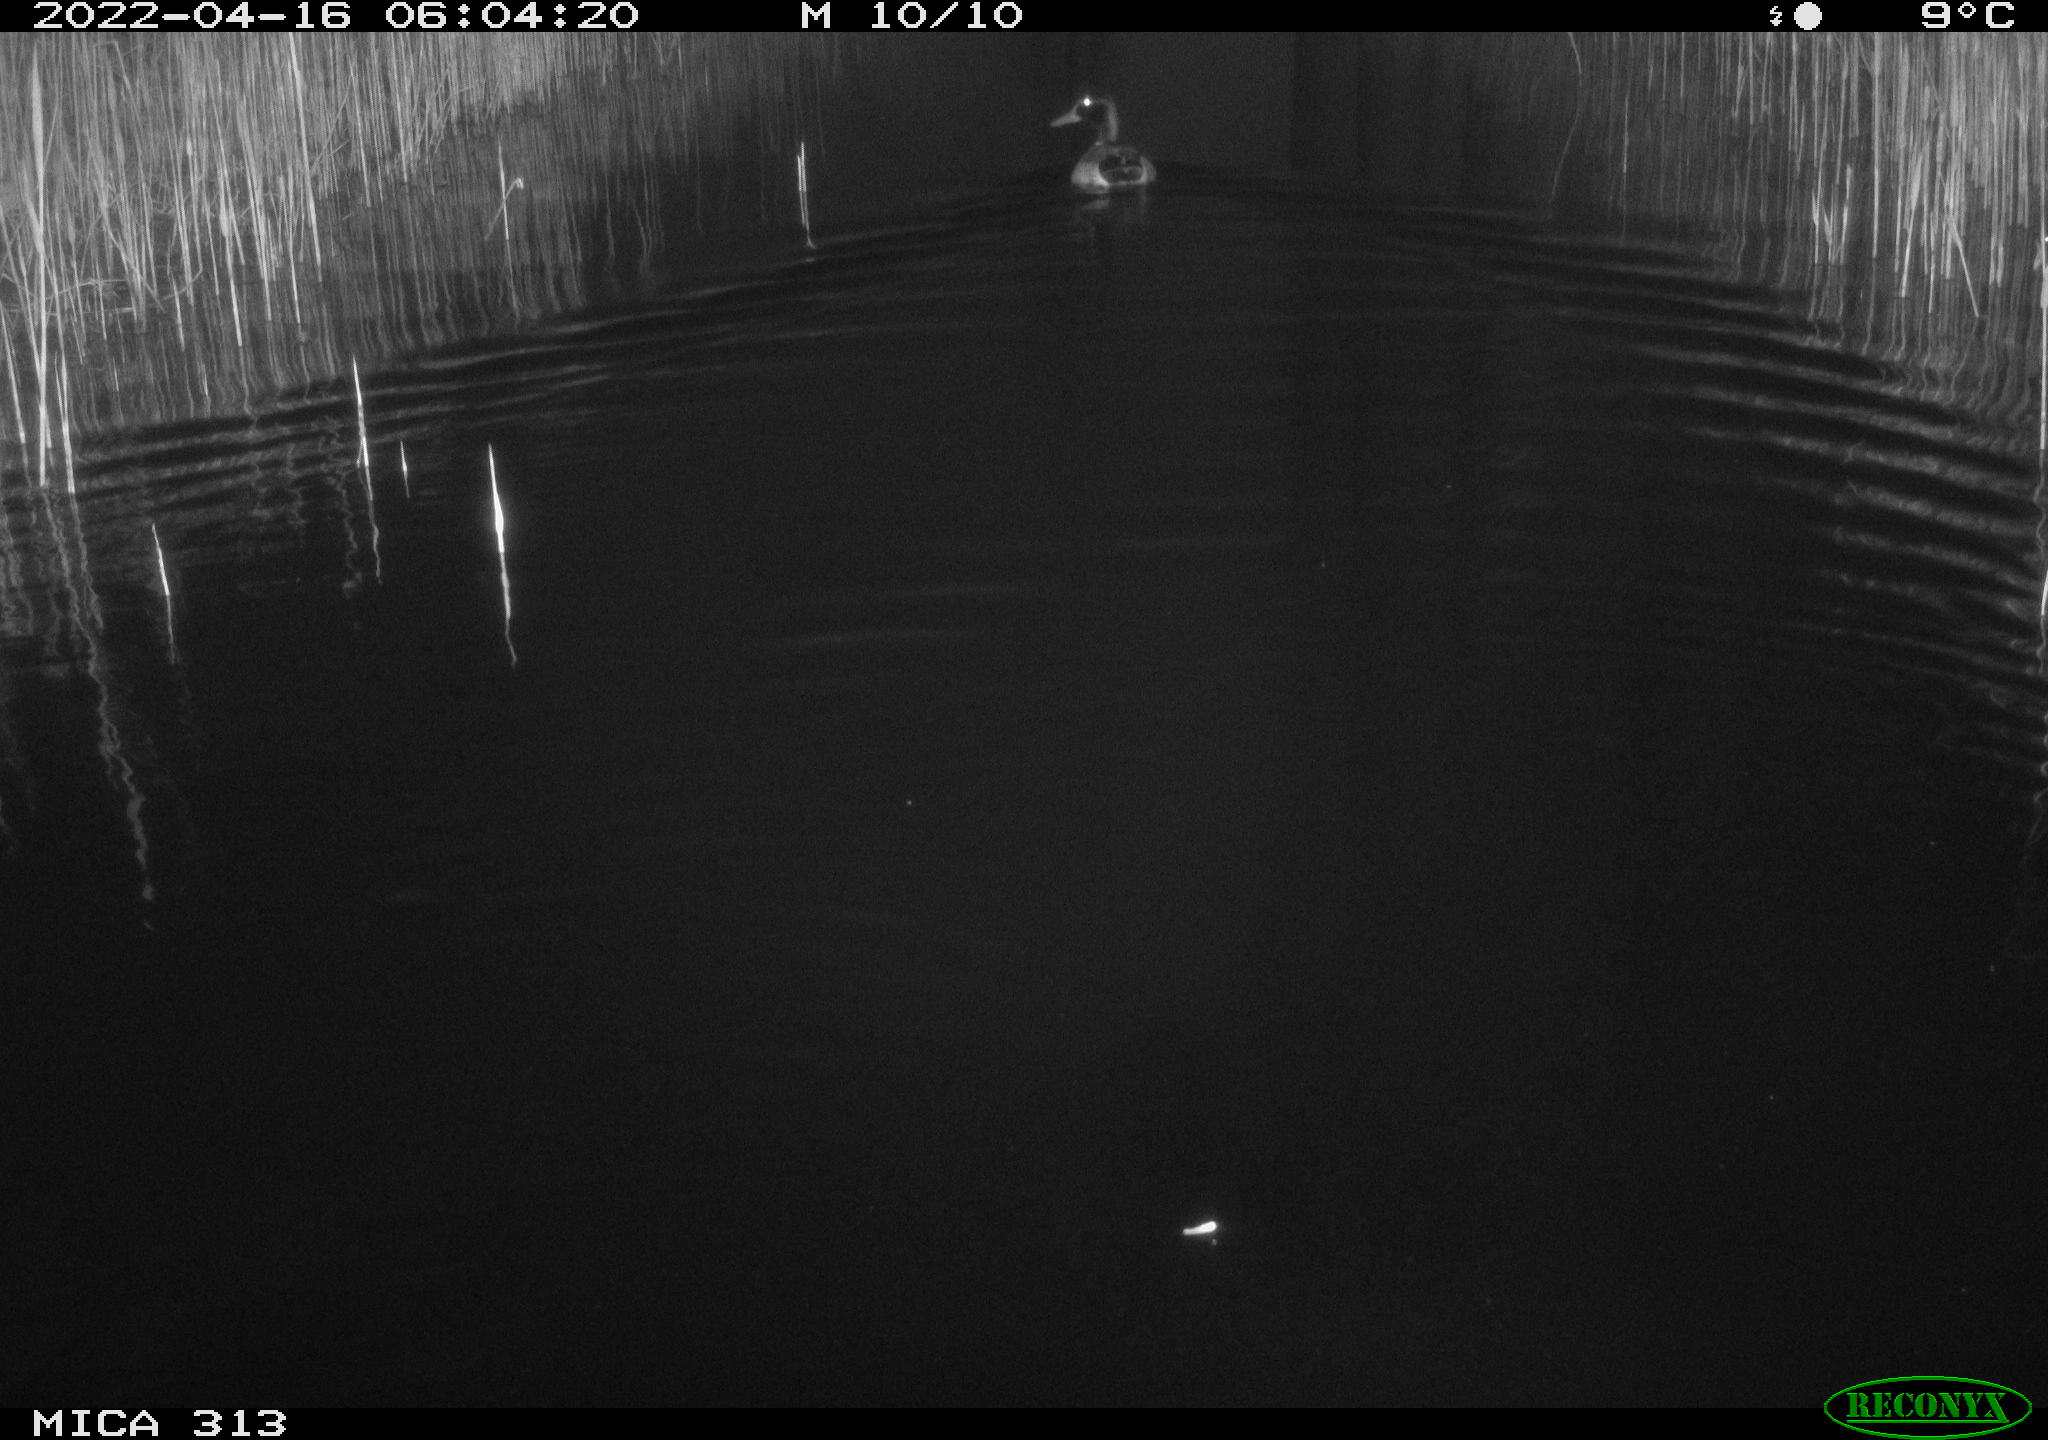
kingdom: Animalia
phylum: Chordata
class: Aves
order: Anseriformes
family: Anatidae
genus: Anas
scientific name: Anas platyrhynchos
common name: Mallard
